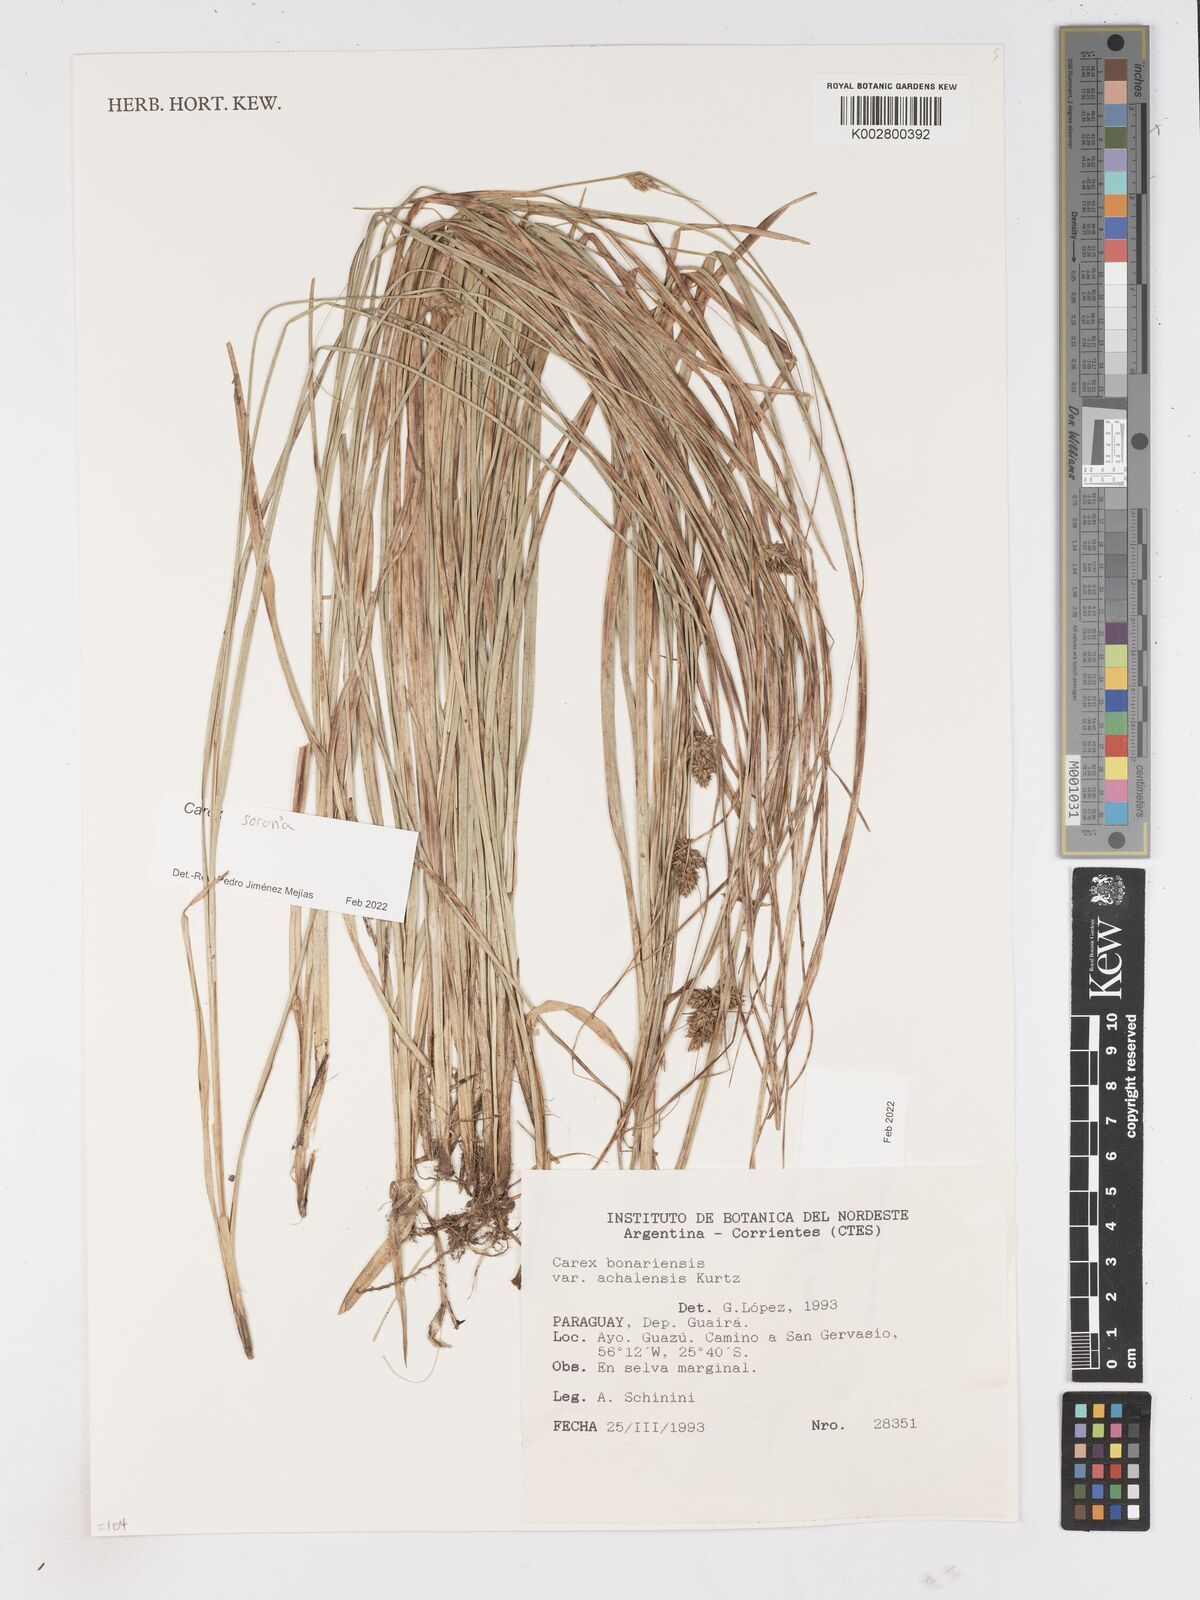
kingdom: Plantae
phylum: Tracheophyta
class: Liliopsida
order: Poales
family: Cyperaceae
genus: Carex
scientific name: Carex sororia
